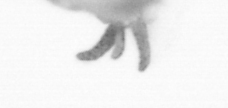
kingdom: Animalia
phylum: Arthropoda
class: Copepoda
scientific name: Copepoda
